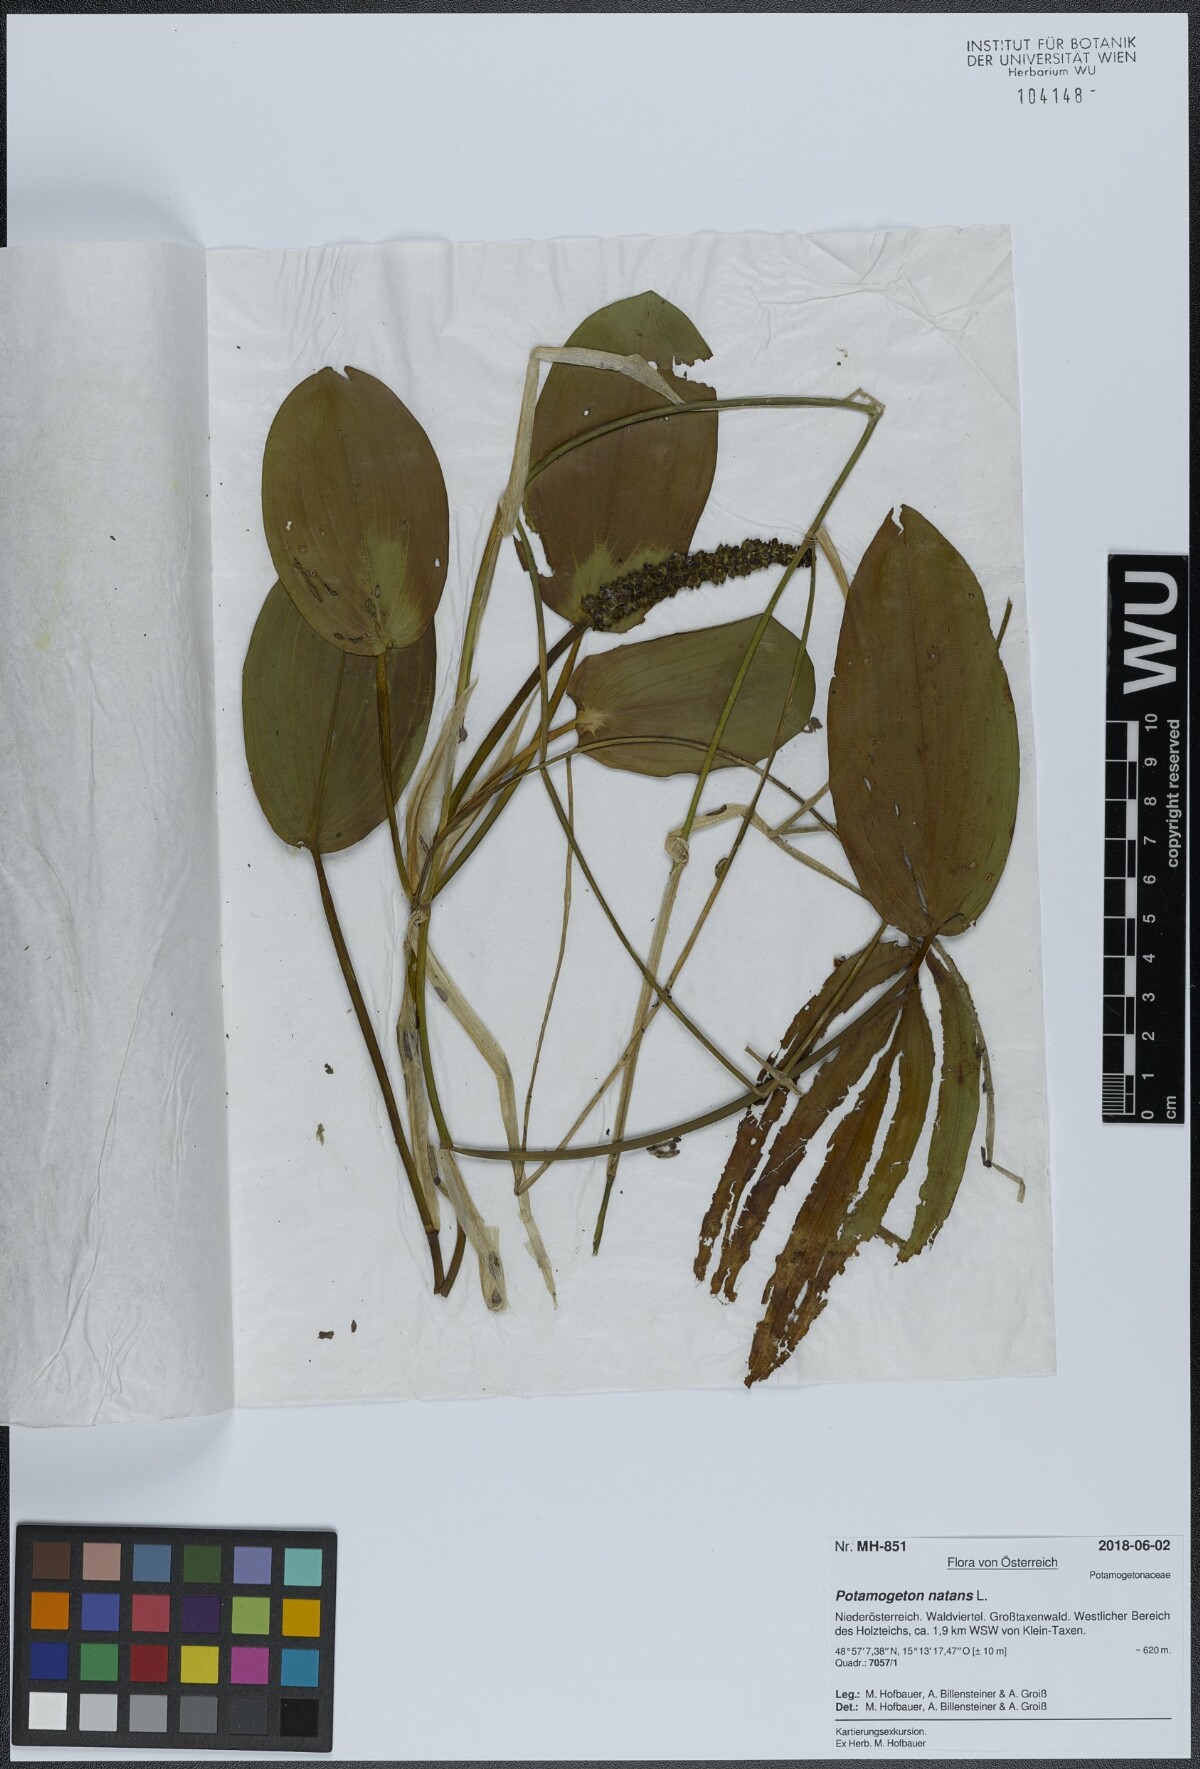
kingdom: Plantae
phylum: Tracheophyta
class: Liliopsida
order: Alismatales
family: Potamogetonaceae
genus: Potamogeton
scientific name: Potamogeton natans
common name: Broad-leaved pondweed
